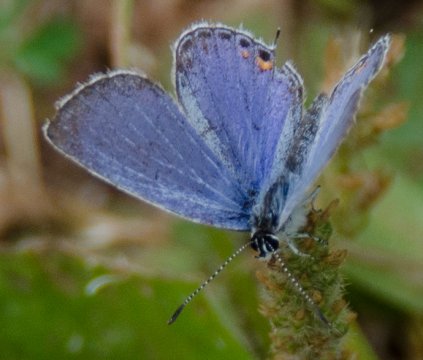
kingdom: Animalia
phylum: Arthropoda
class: Insecta
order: Lepidoptera
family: Lycaenidae
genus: Elkalyce
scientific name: Elkalyce comyntas
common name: Eastern Tailed-Blue
